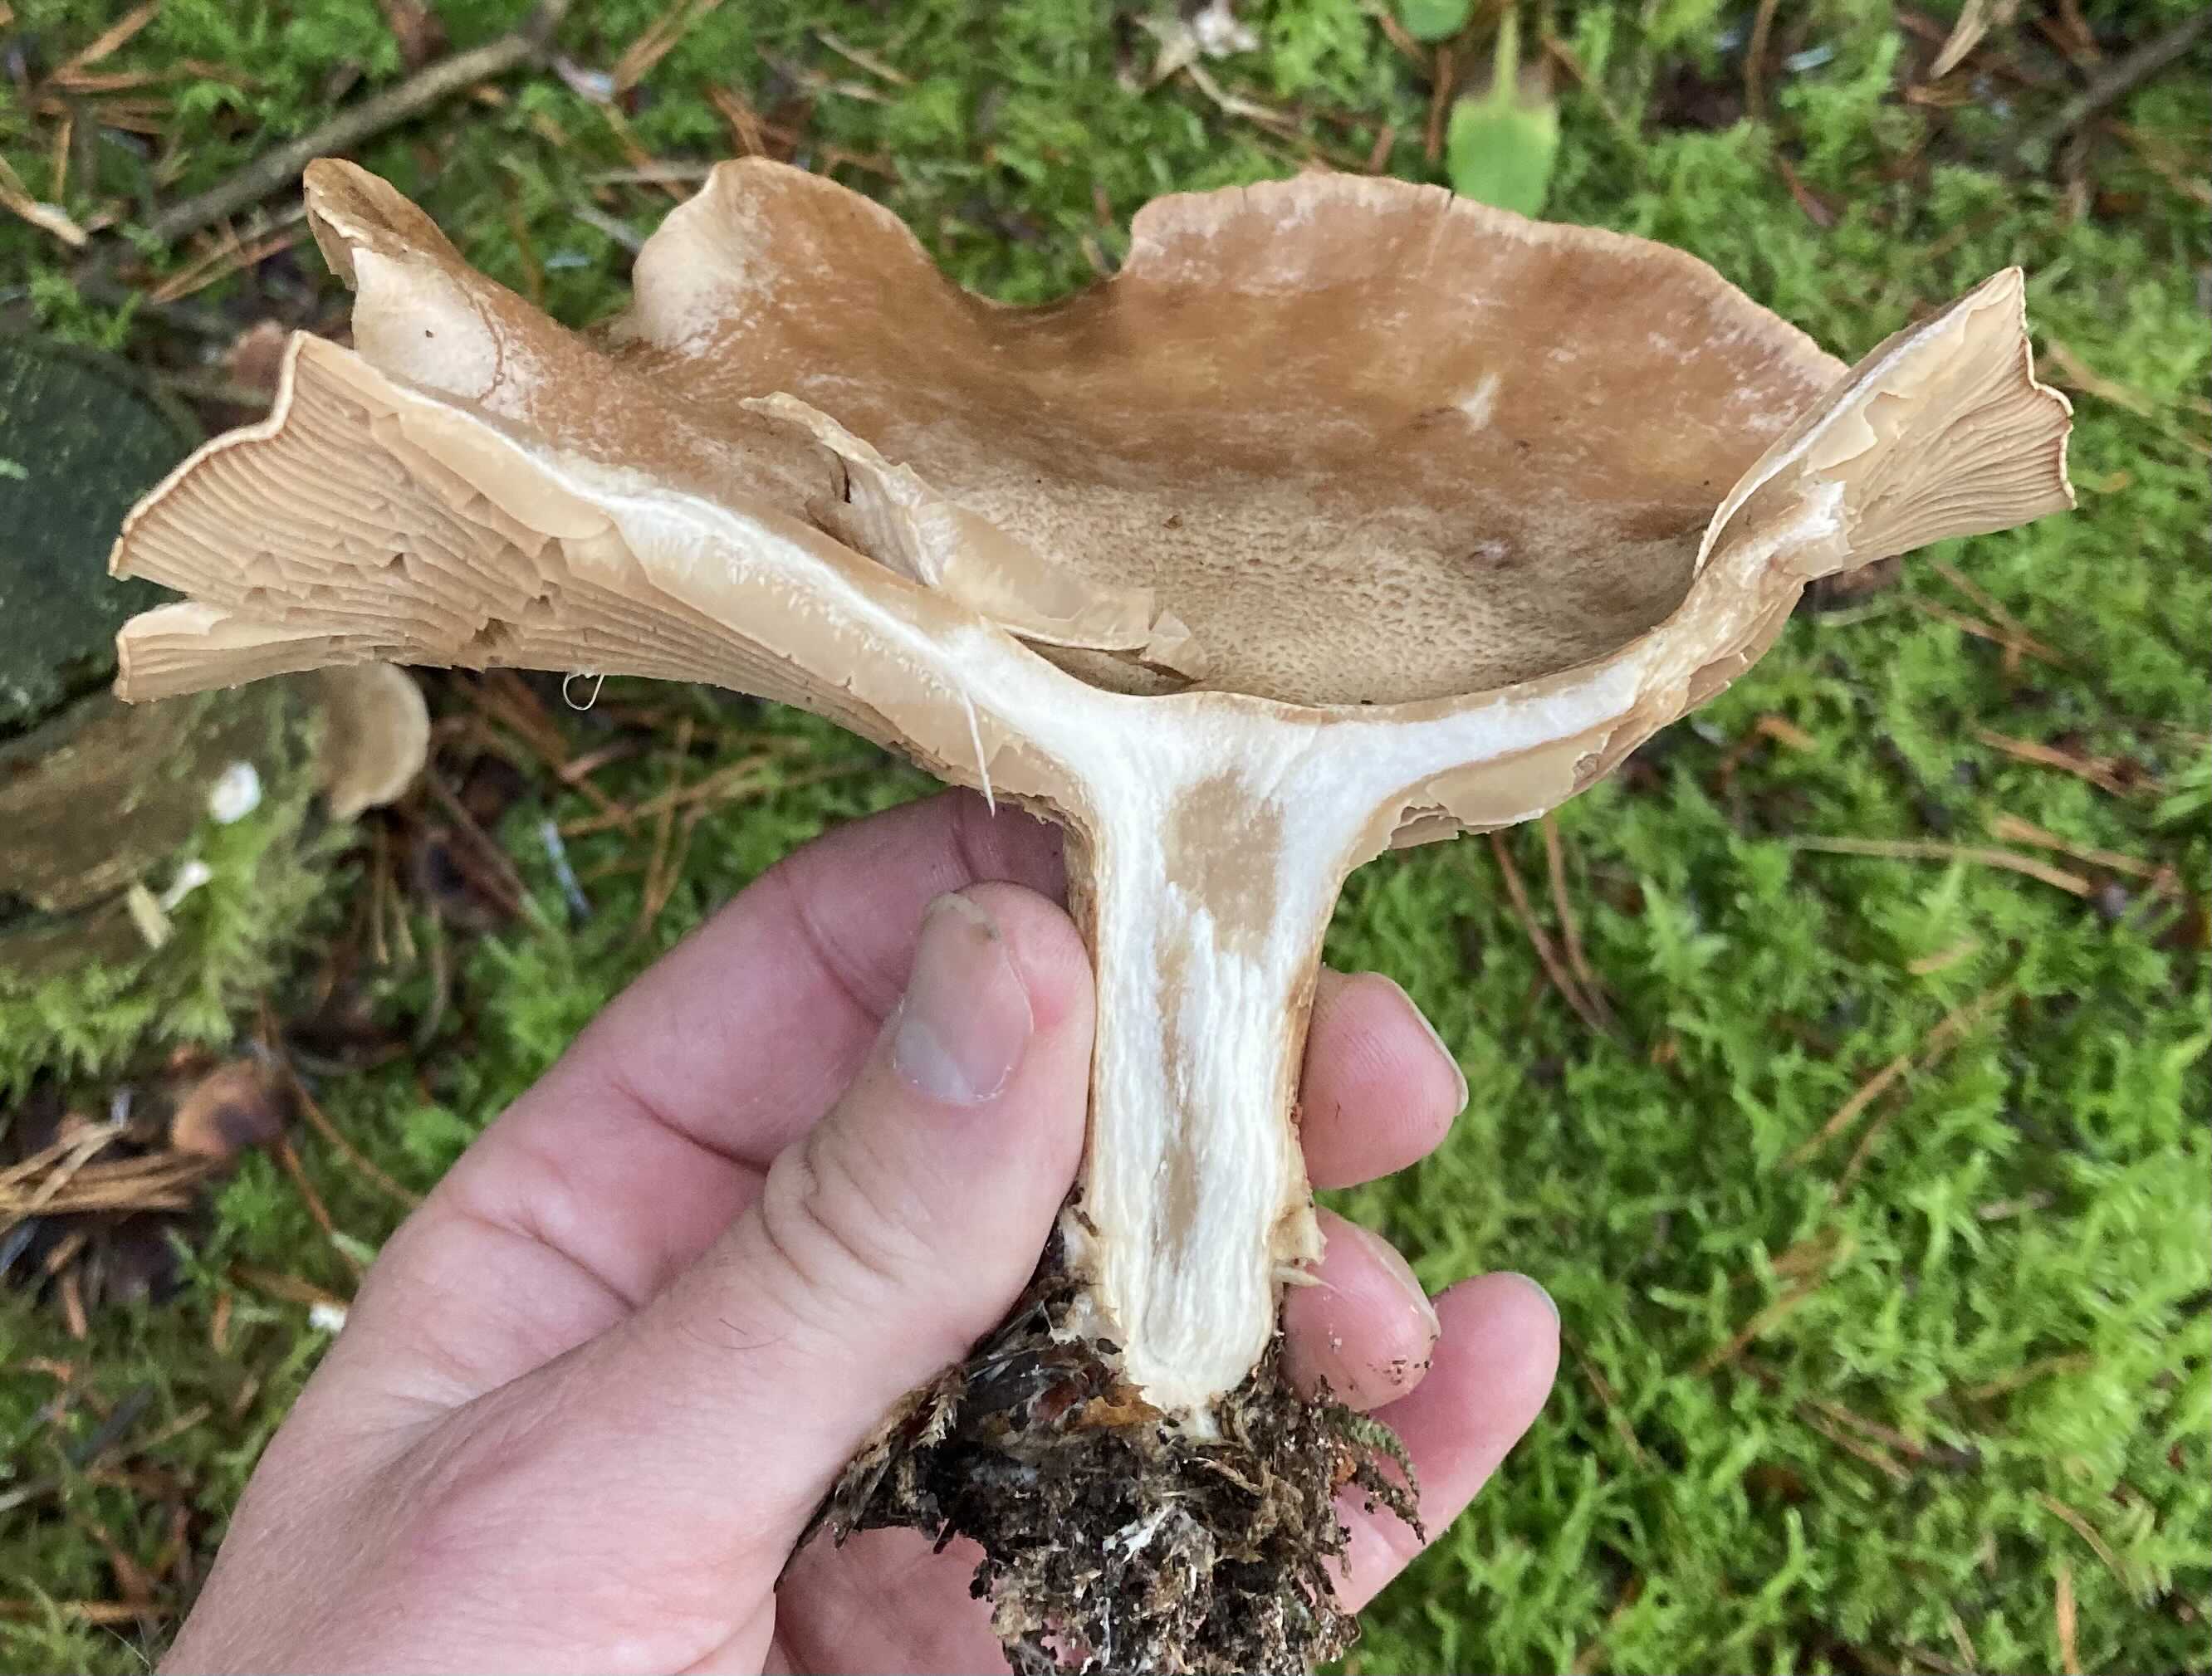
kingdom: Fungi
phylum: Basidiomycota
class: Agaricomycetes
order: Agaricales
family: Tricholomataceae
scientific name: Tricholomataceae
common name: ridderhatfamilien
